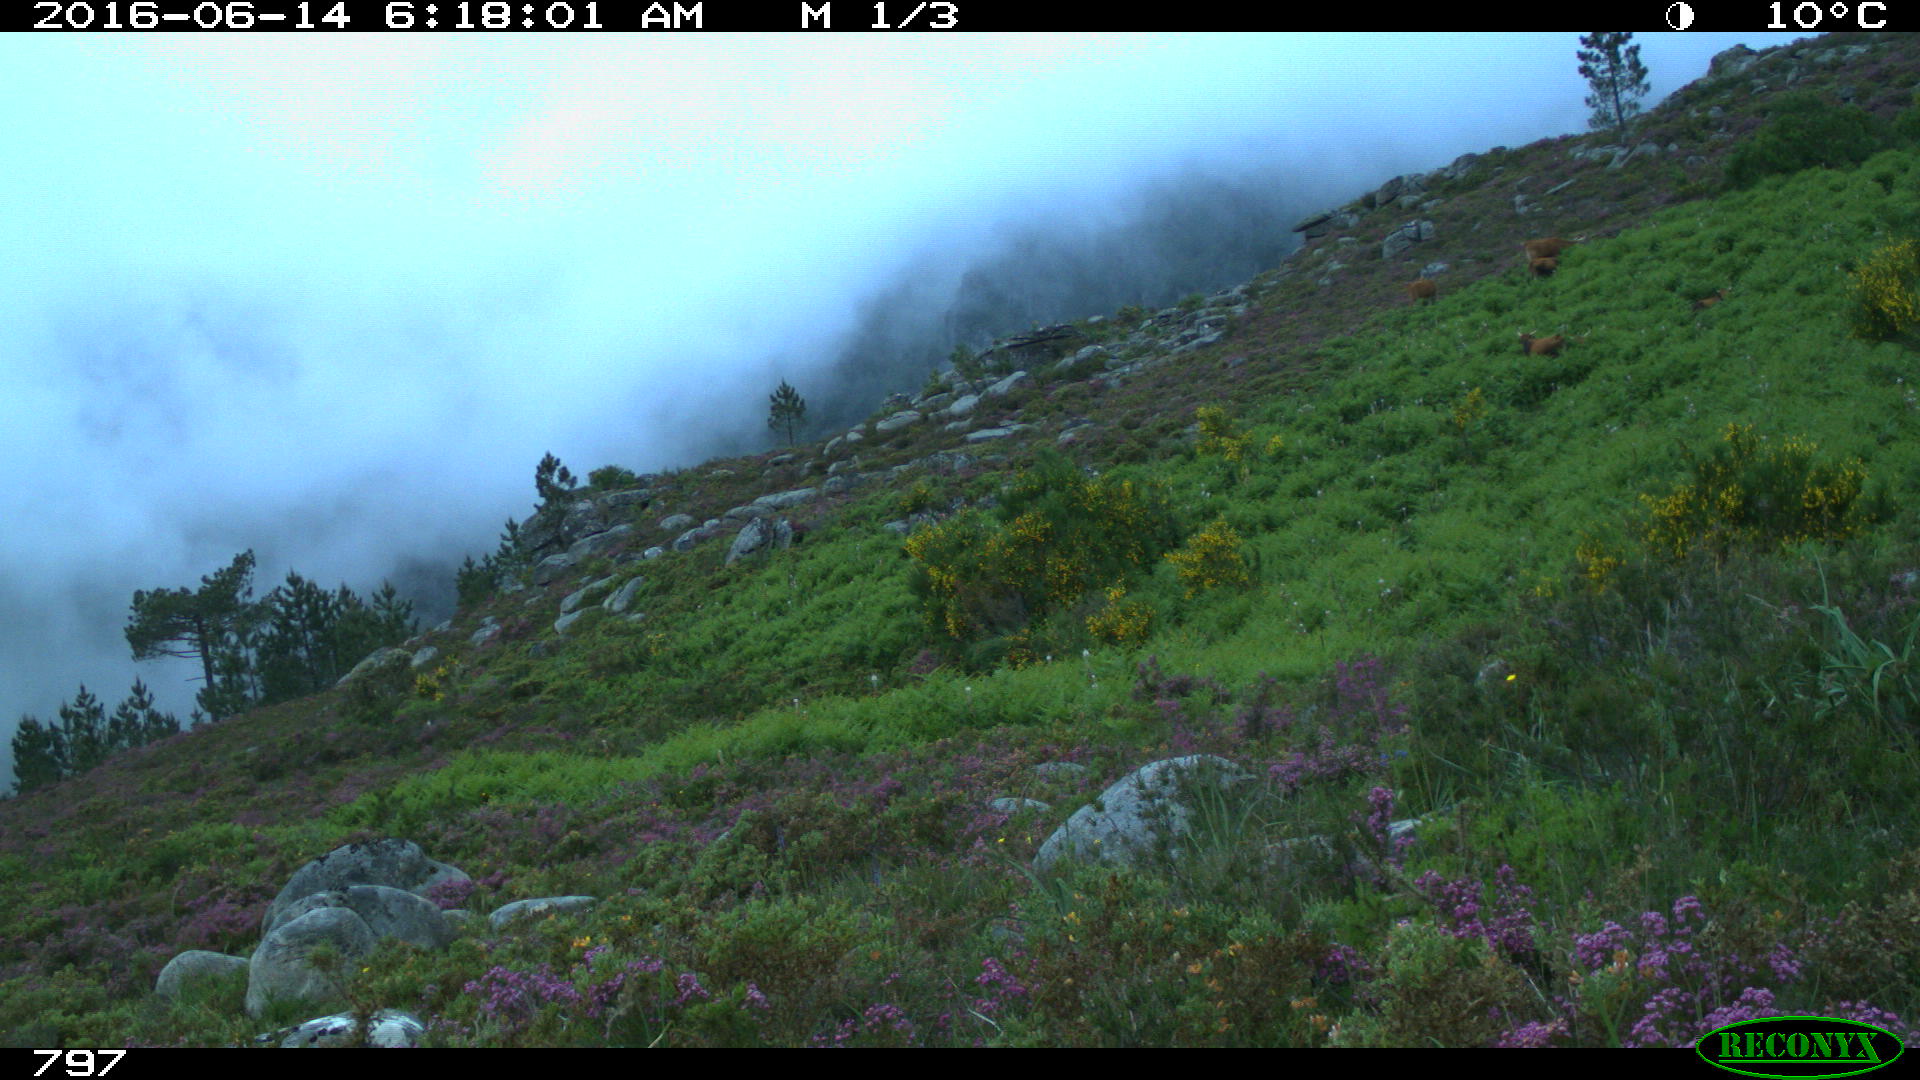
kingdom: Animalia
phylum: Chordata
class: Mammalia
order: Artiodactyla
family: Bovidae
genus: Bos
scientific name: Bos taurus
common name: Domesticated cattle
